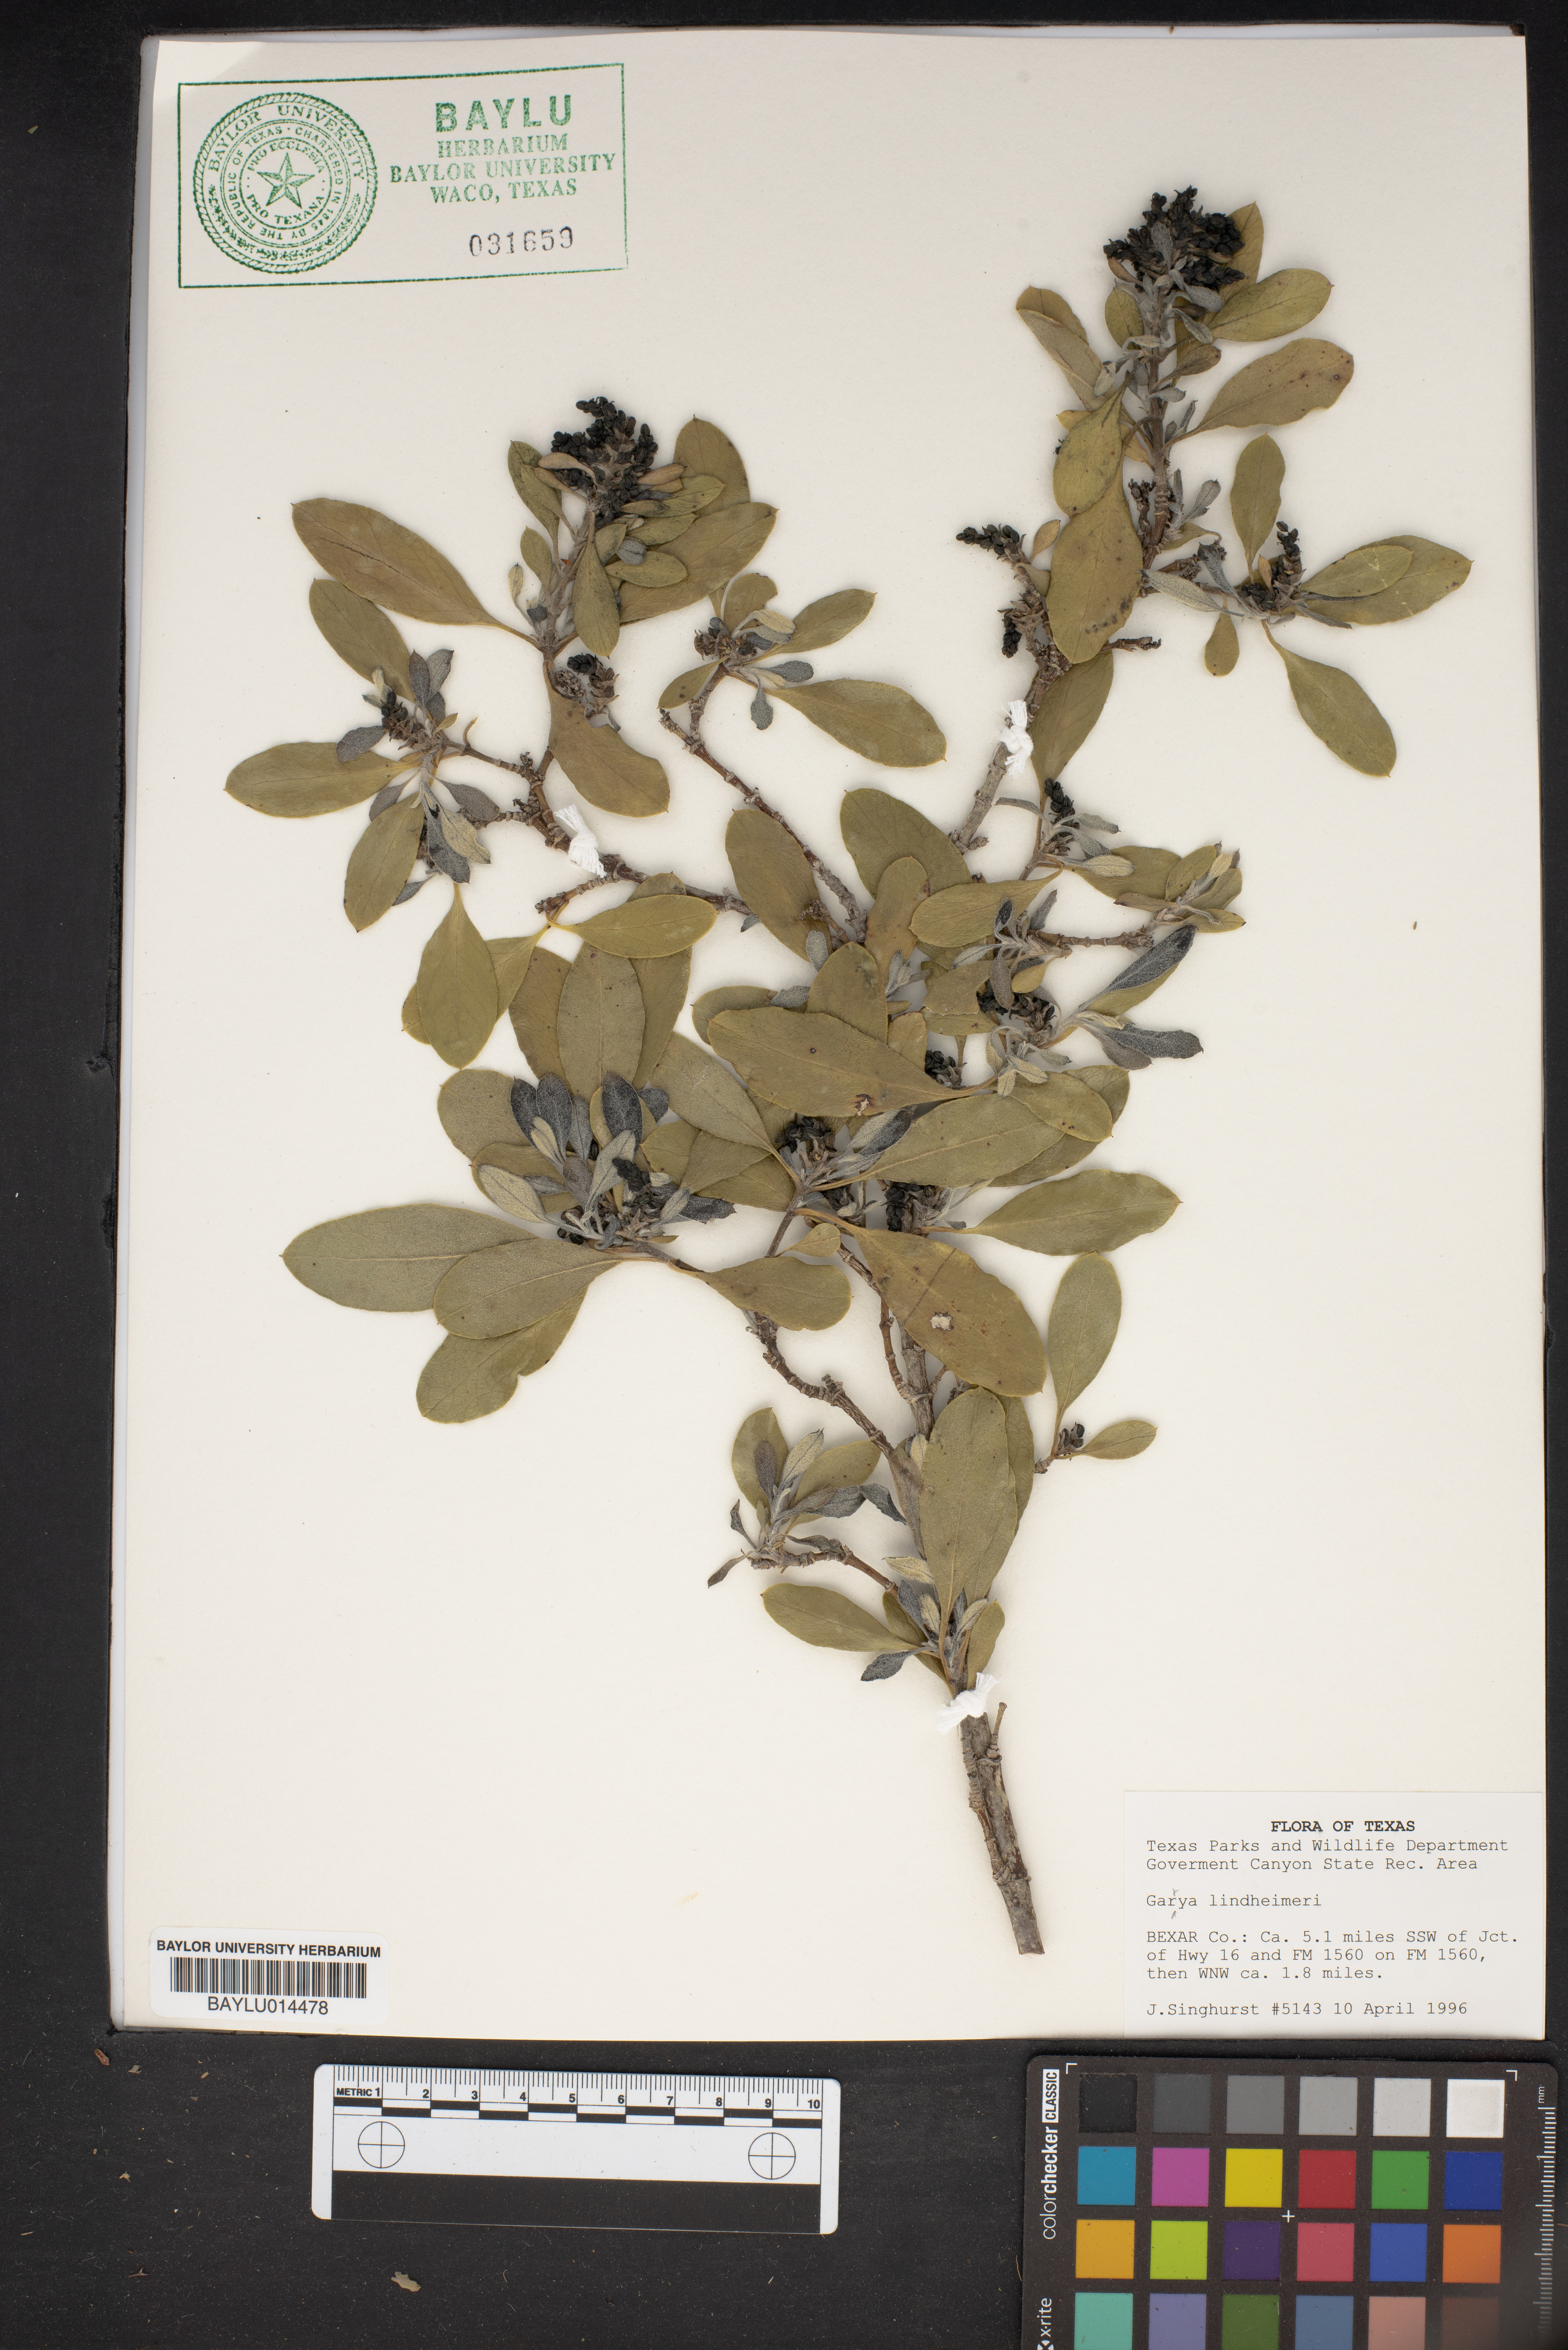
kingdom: Plantae
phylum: Tracheophyta
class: Magnoliopsida
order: Garryales
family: Garryaceae
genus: Garrya
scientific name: Garrya lindheimeri
